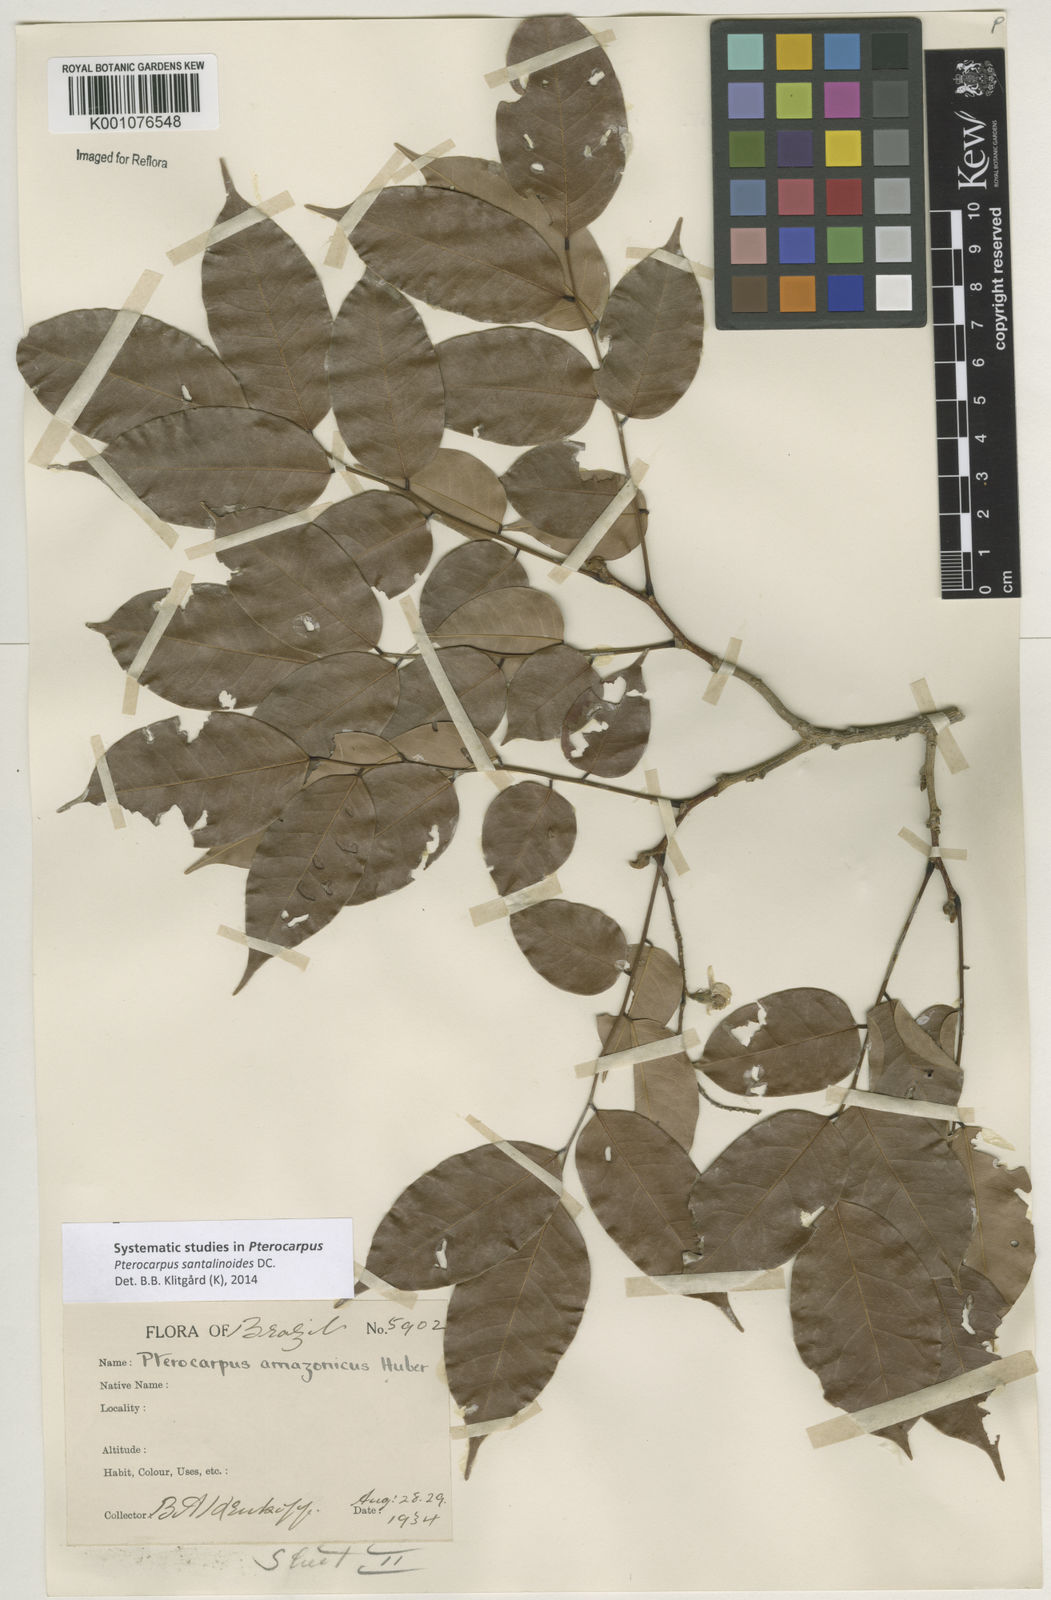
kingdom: Plantae
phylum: Tracheophyta
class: Magnoliopsida
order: Fabales
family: Fabaceae
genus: Pterocarpus
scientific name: Pterocarpus santalinoides
